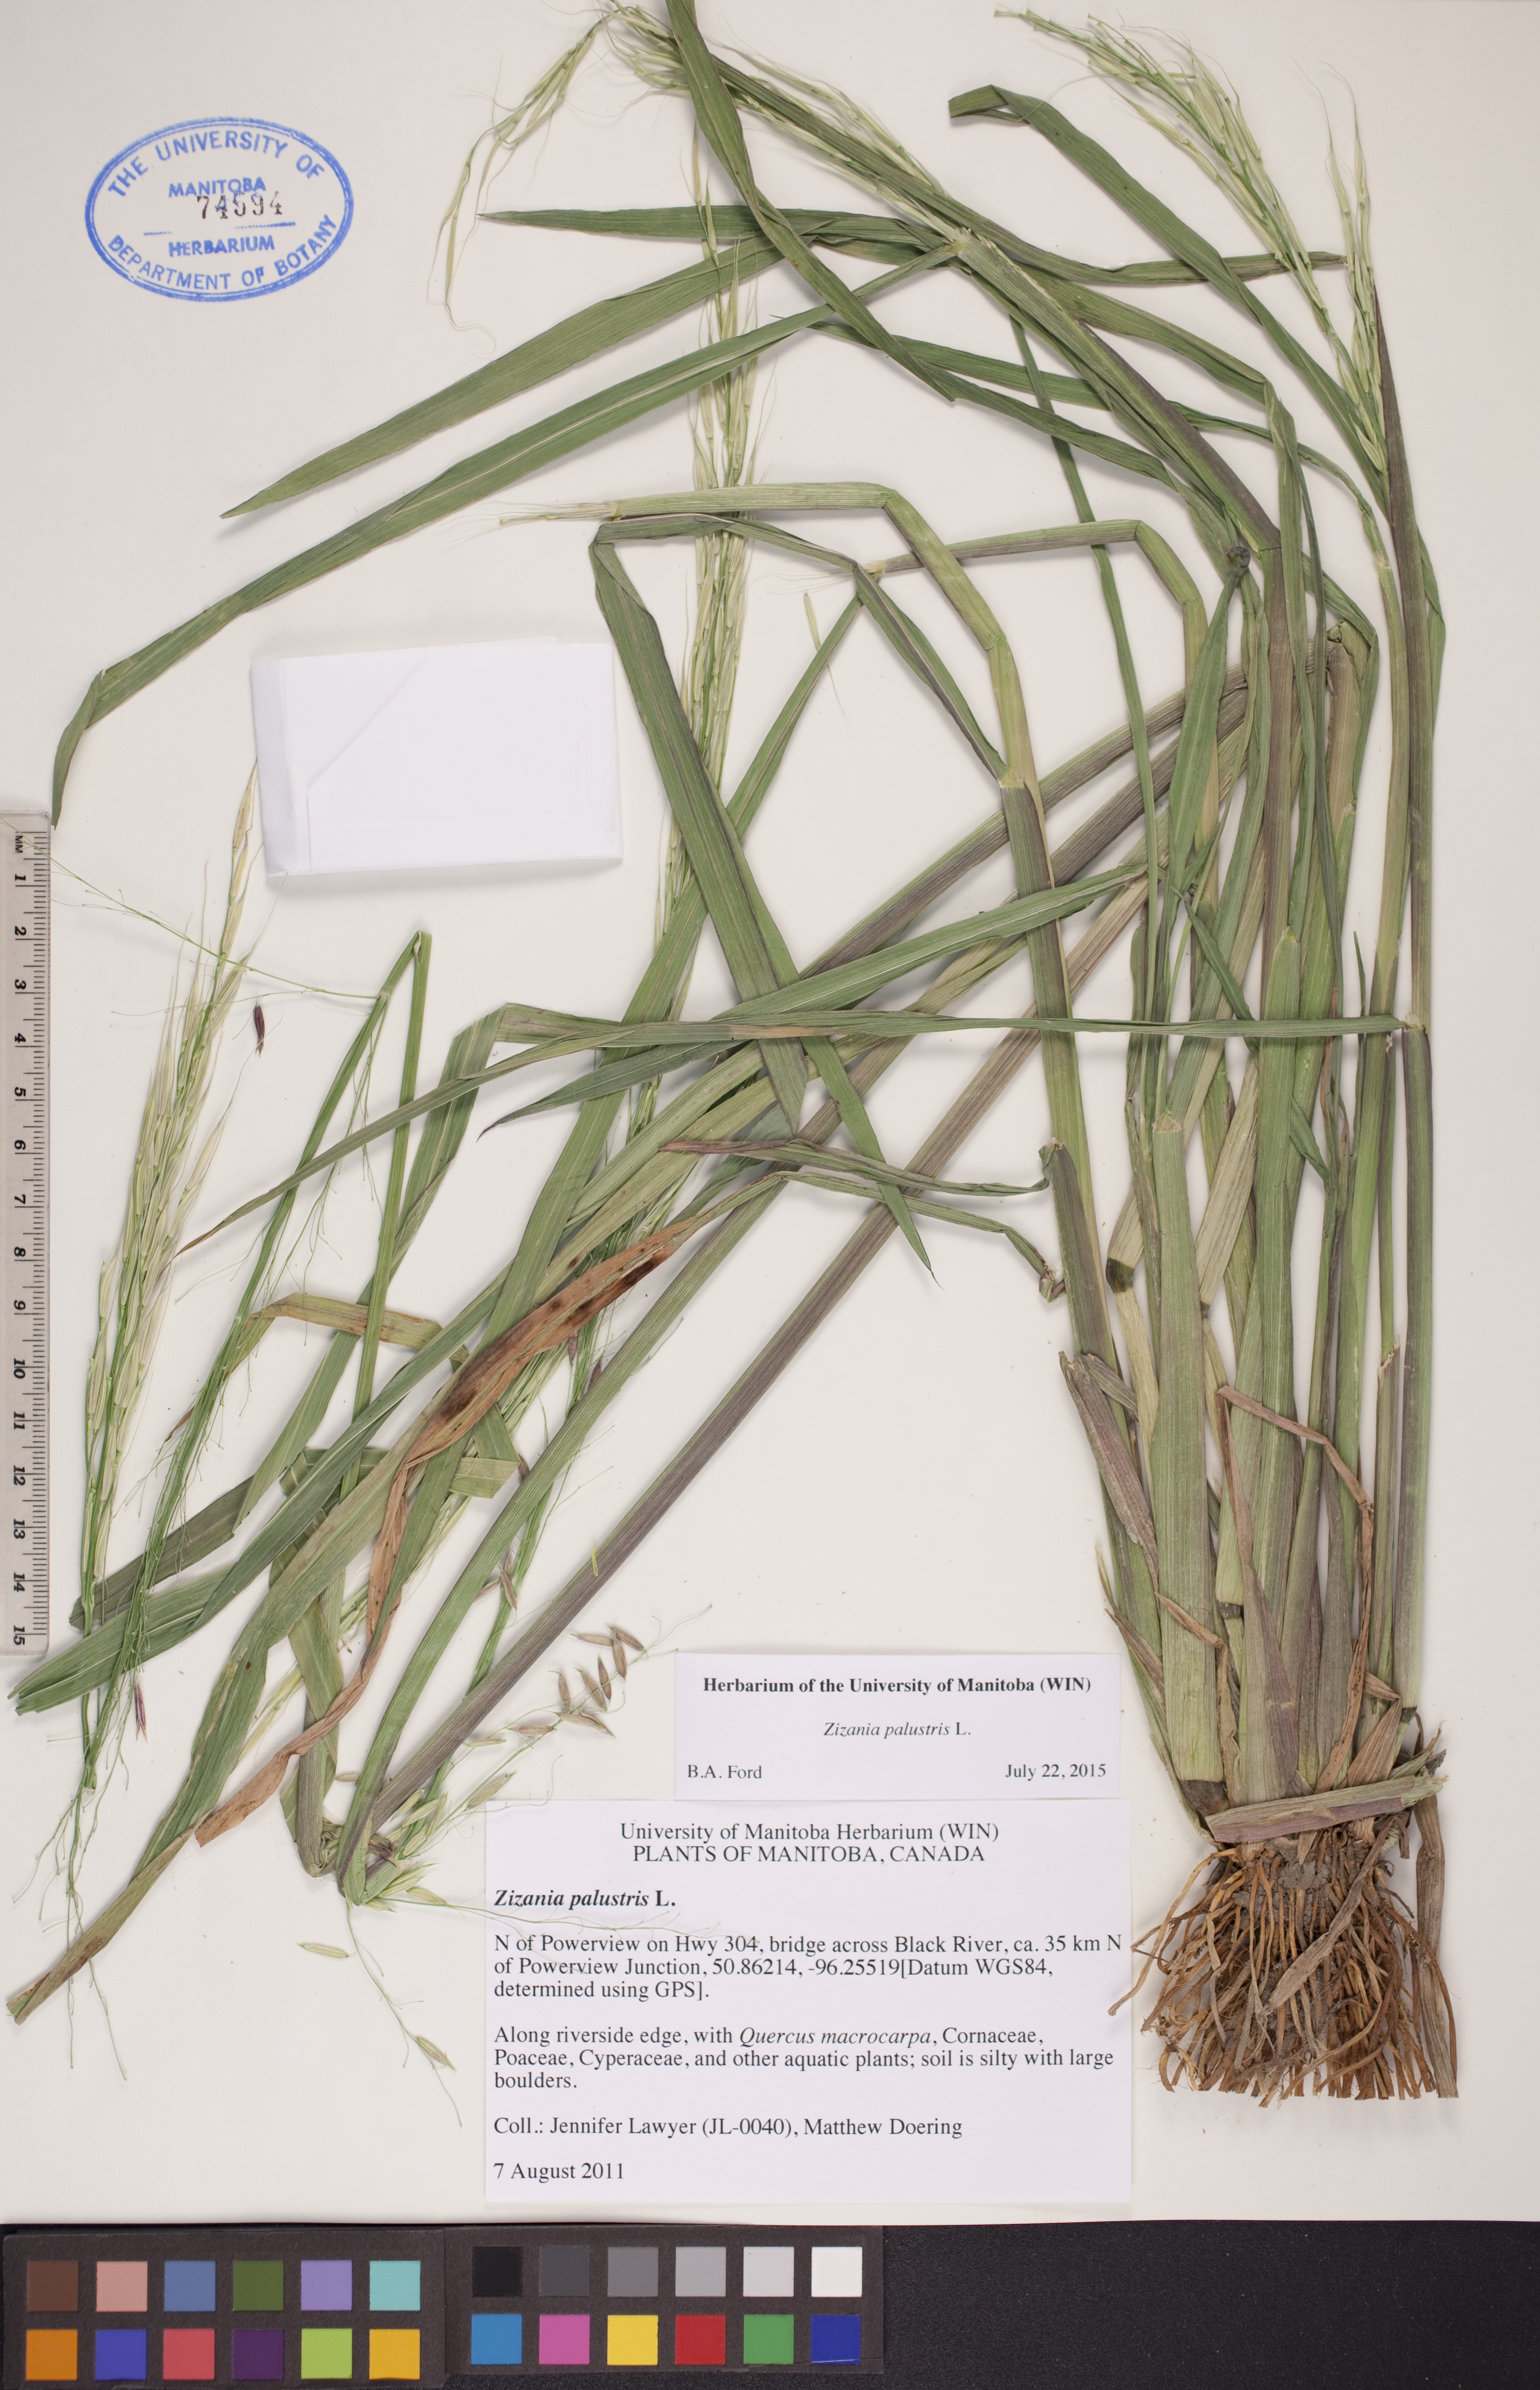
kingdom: Plantae
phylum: Tracheophyta
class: Liliopsida
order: Poales
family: Poaceae
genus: Zizania
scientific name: Zizania palustris
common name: Northern wild rice
